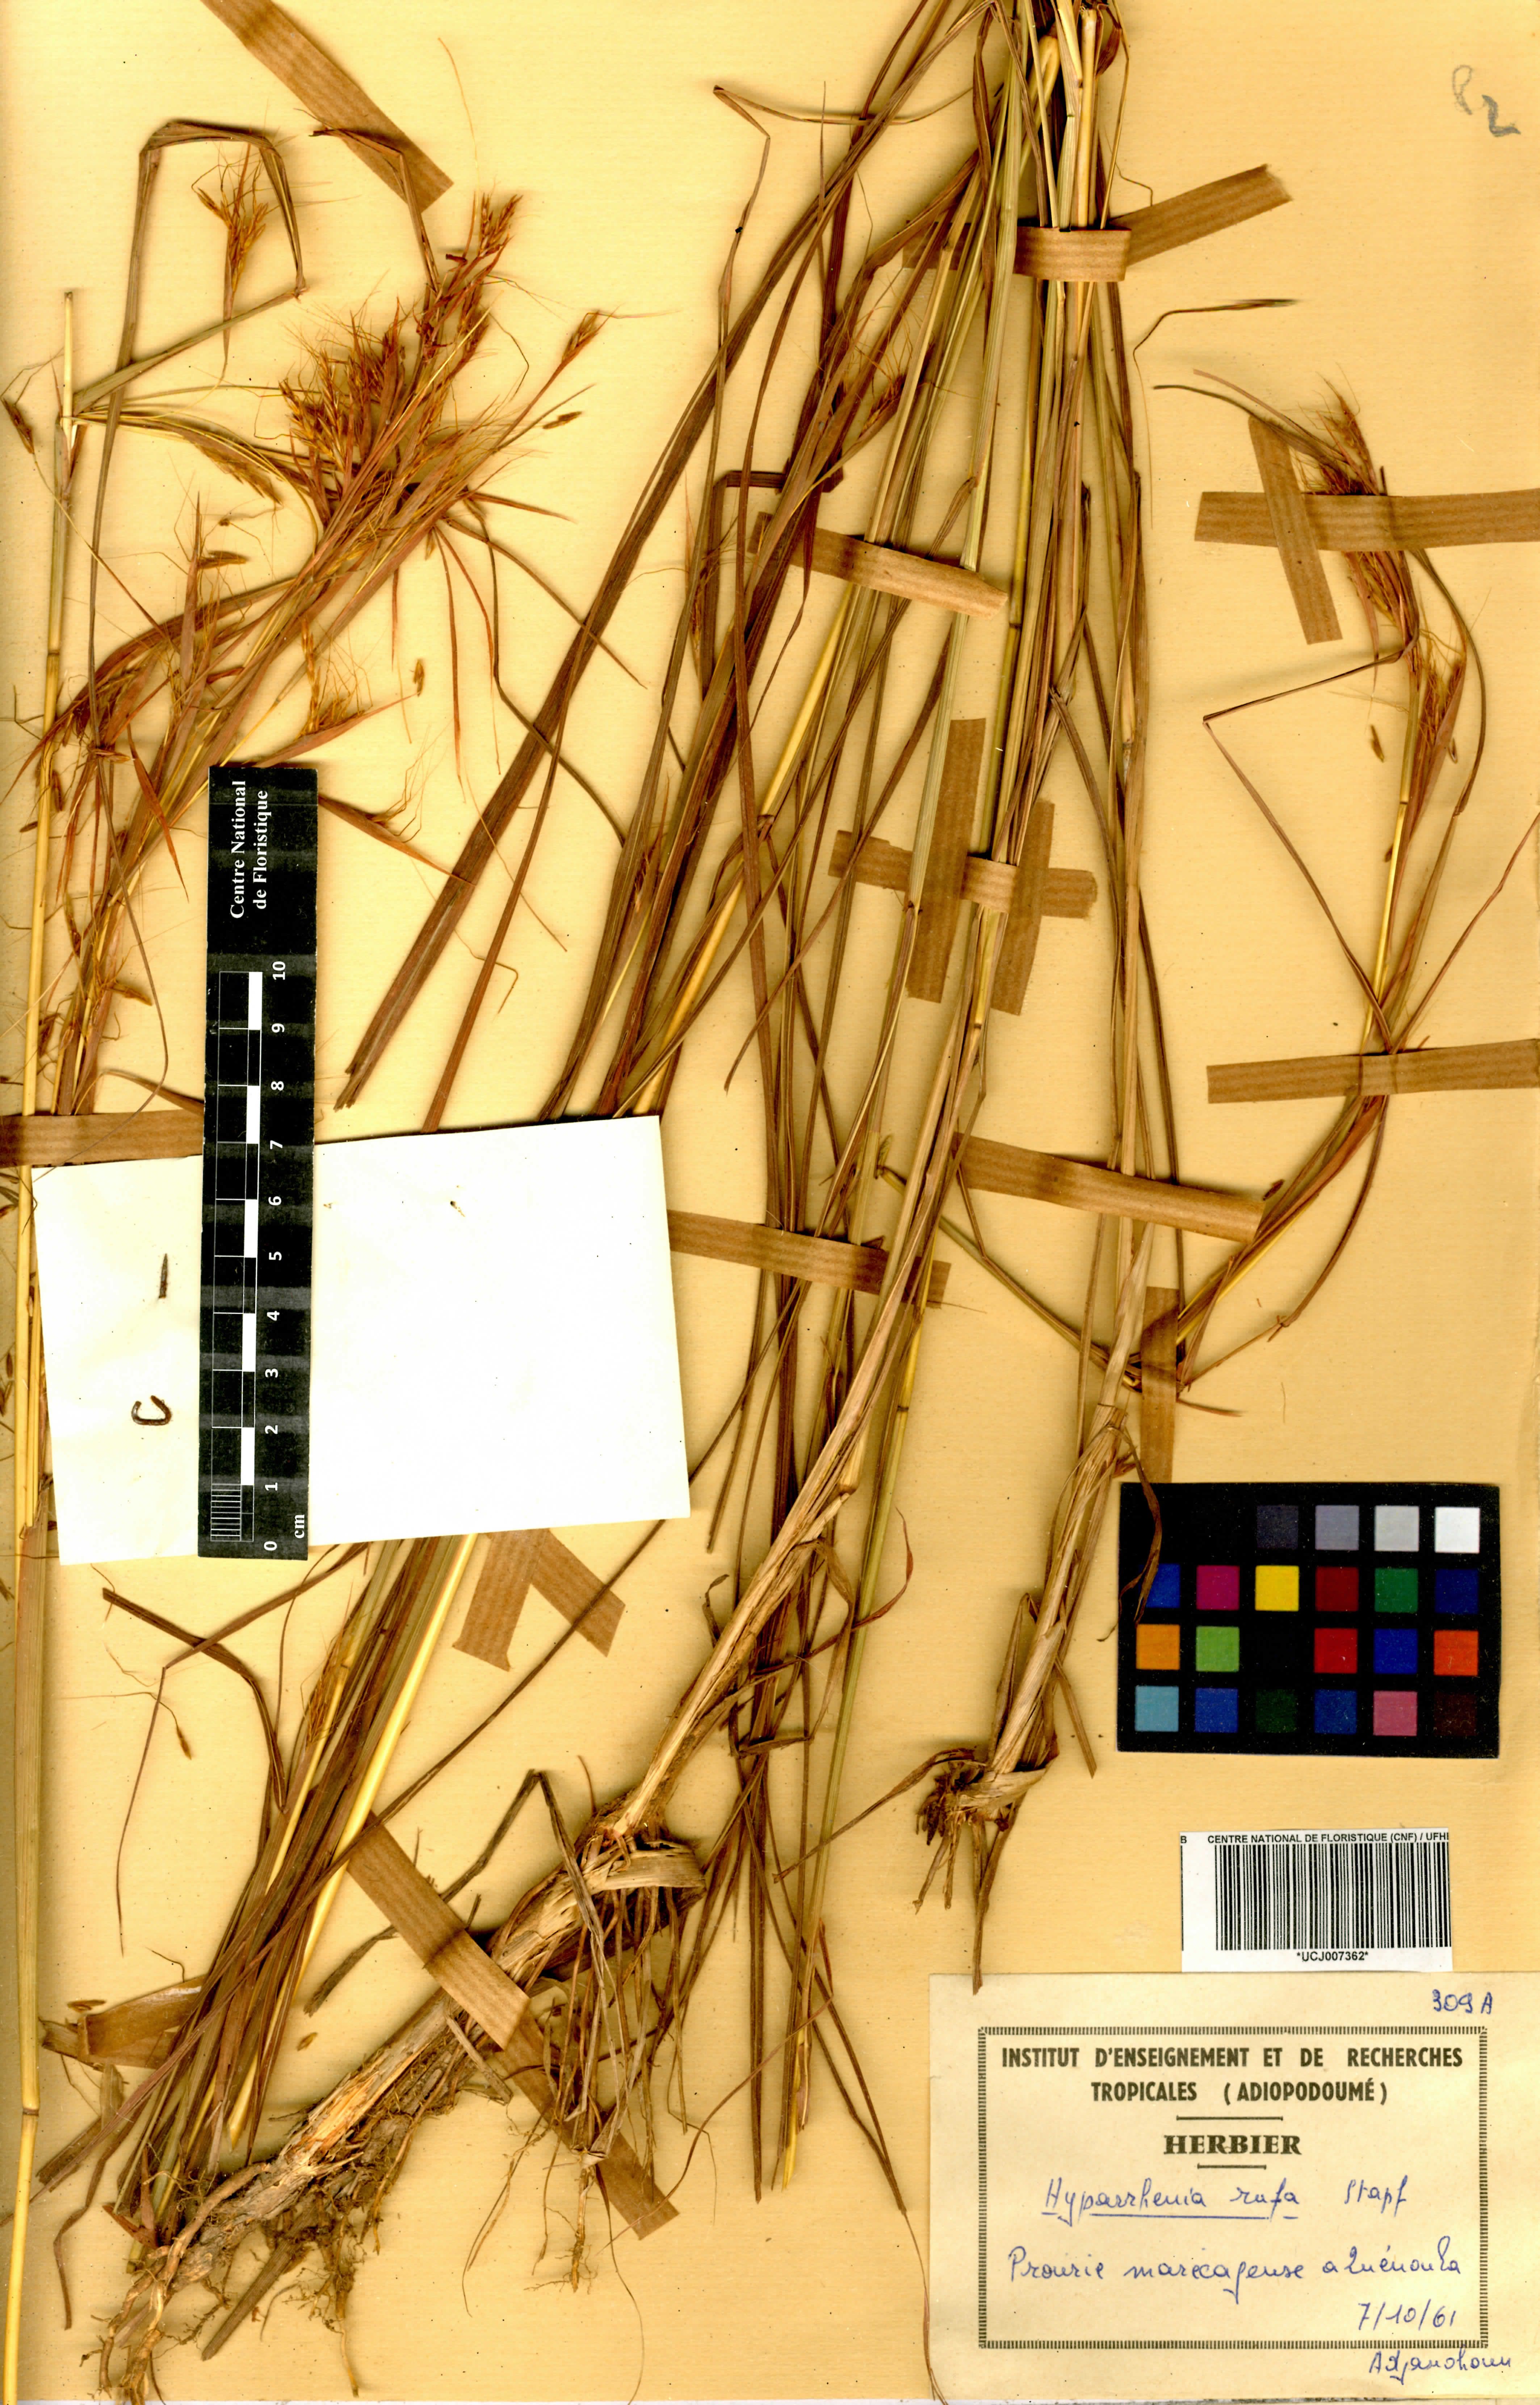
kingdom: Plantae
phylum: Tracheophyta
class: Liliopsida
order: Poales
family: Poaceae
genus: Hyparrhenia
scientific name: Hyparrhenia rufa
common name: Jaraguagrass
